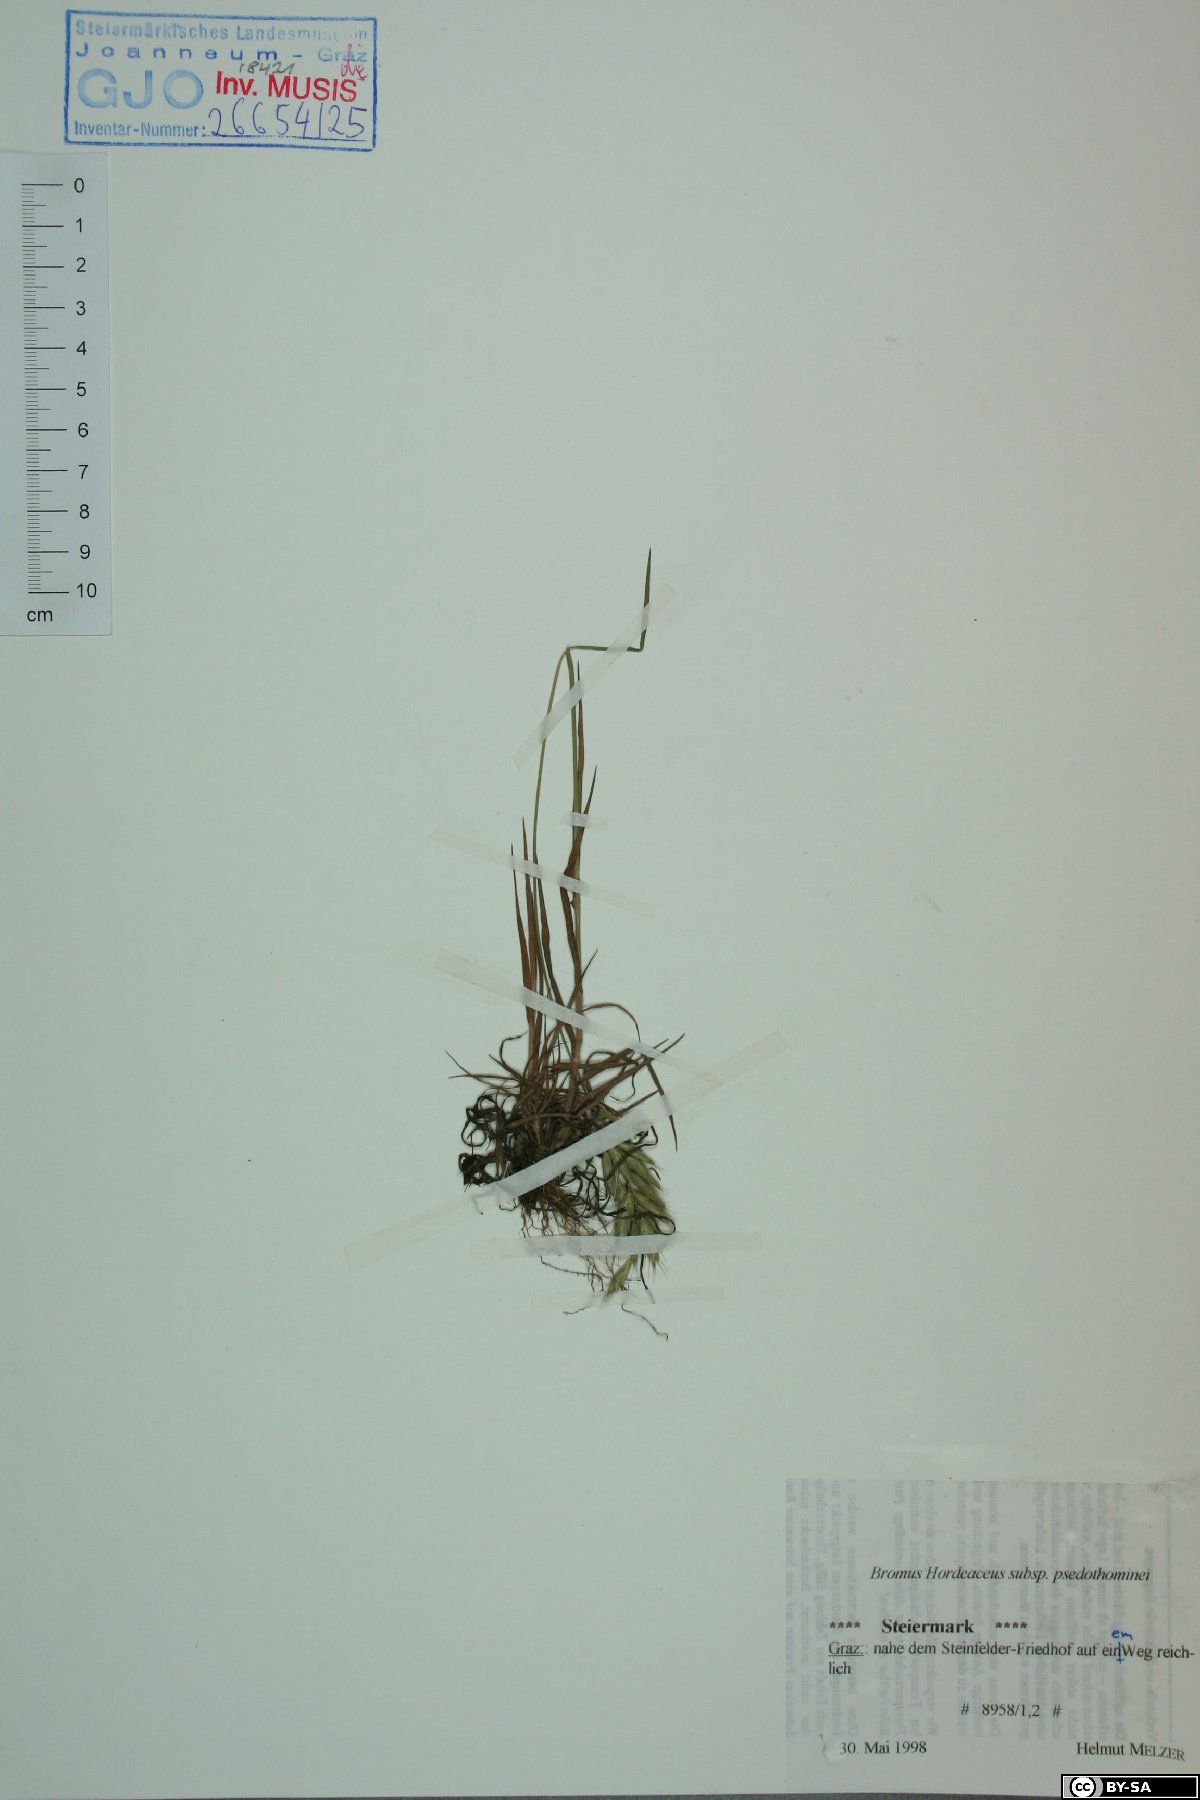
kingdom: Plantae
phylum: Tracheophyta
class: Liliopsida
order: Poales
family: Poaceae
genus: Bromus
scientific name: Bromus ferronii
